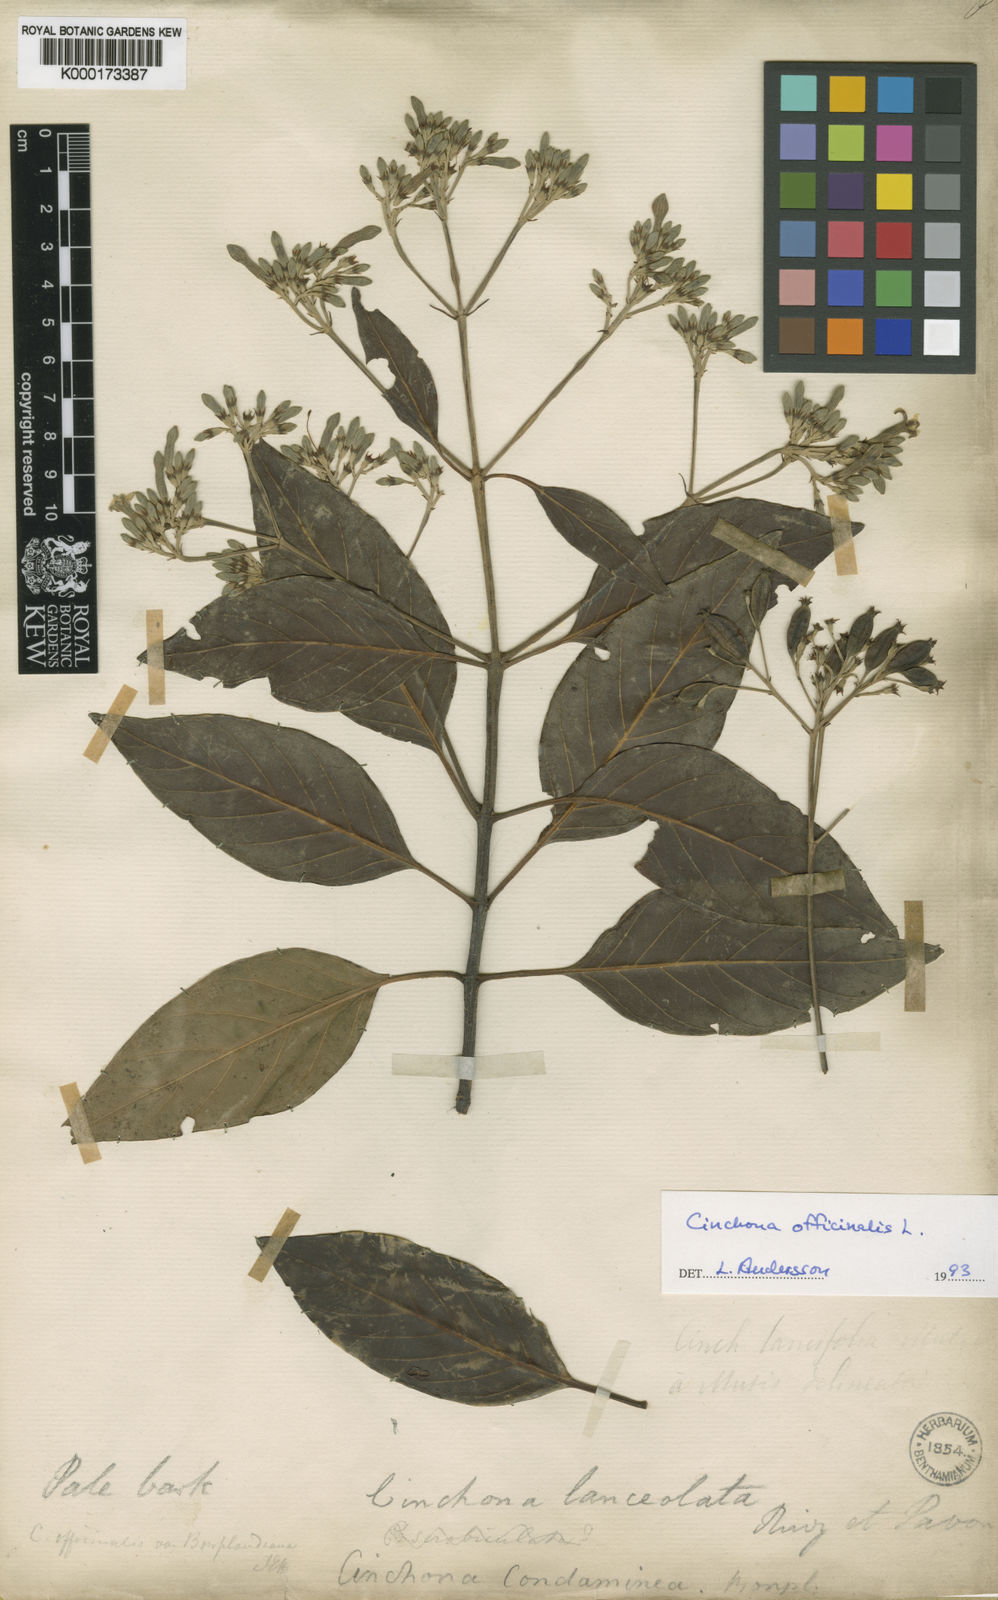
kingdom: Plantae
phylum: Tracheophyta
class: Magnoliopsida
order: Gentianales
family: Rubiaceae
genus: Cinchona
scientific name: Cinchona officinalis
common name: Lojabark
